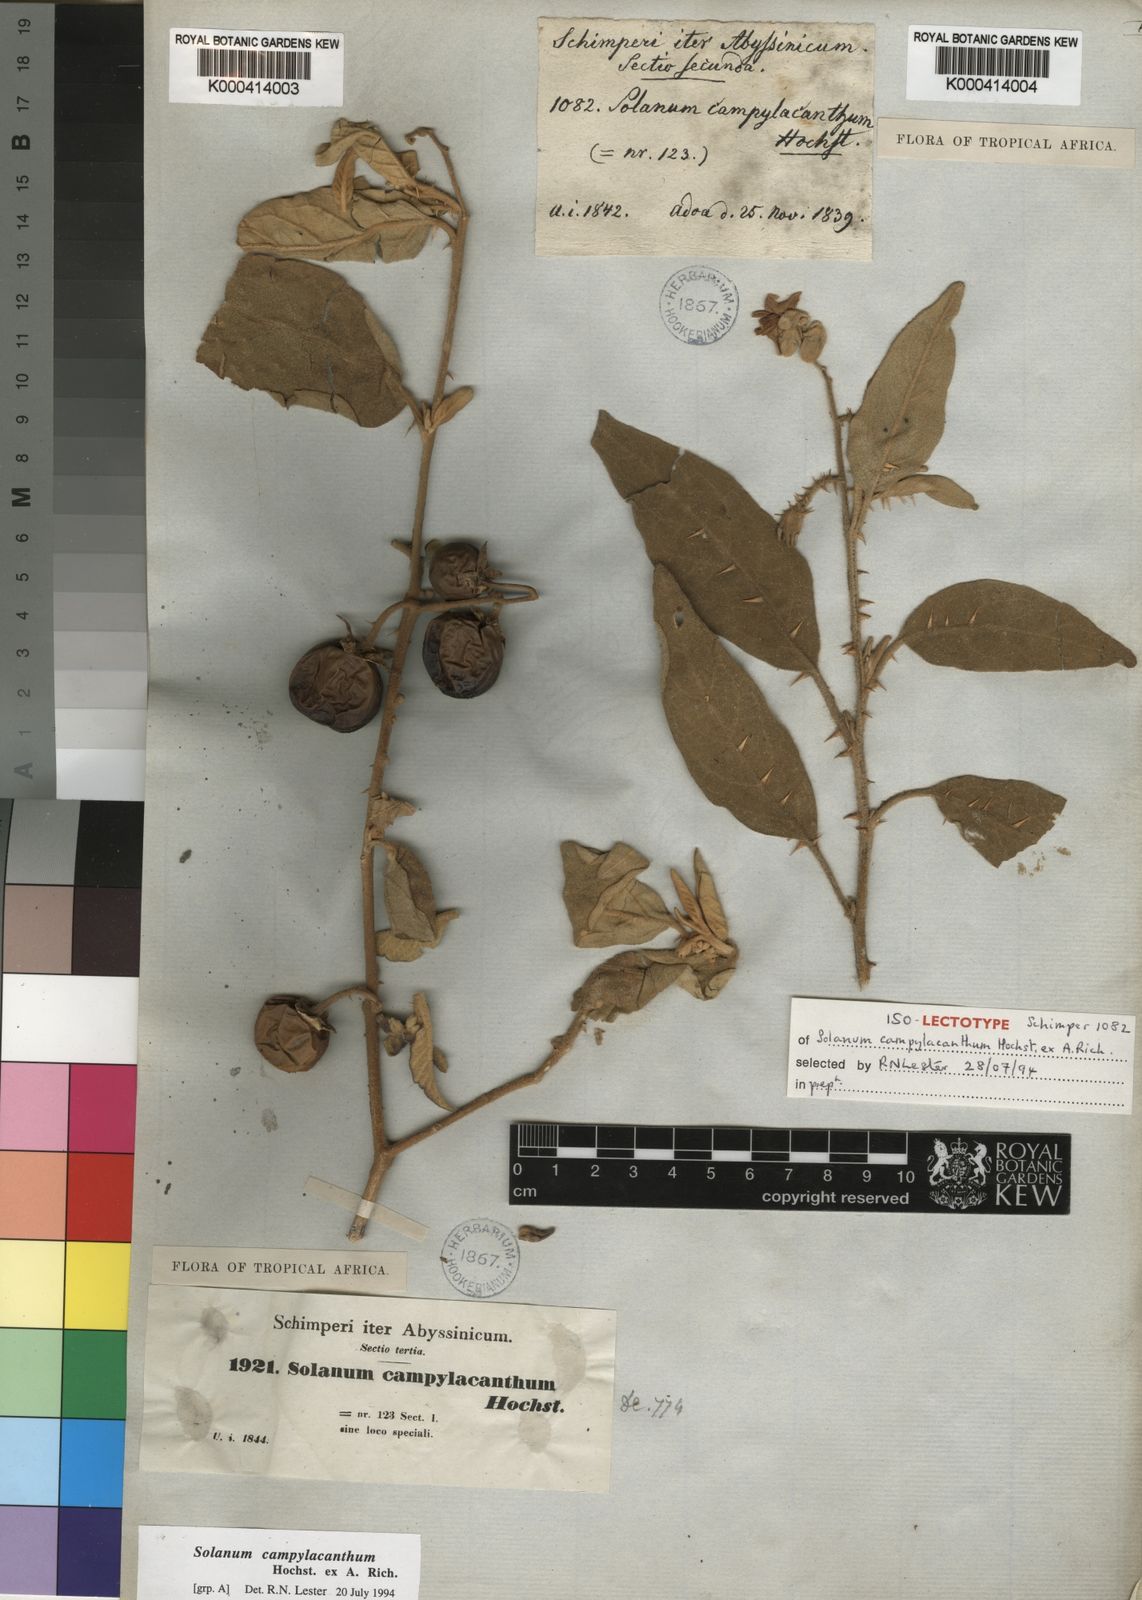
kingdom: Plantae
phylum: Tracheophyta
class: Magnoliopsida
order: Solanales
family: Solanaceae
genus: Solanum
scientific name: Solanum incanum
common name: Bitter apple
